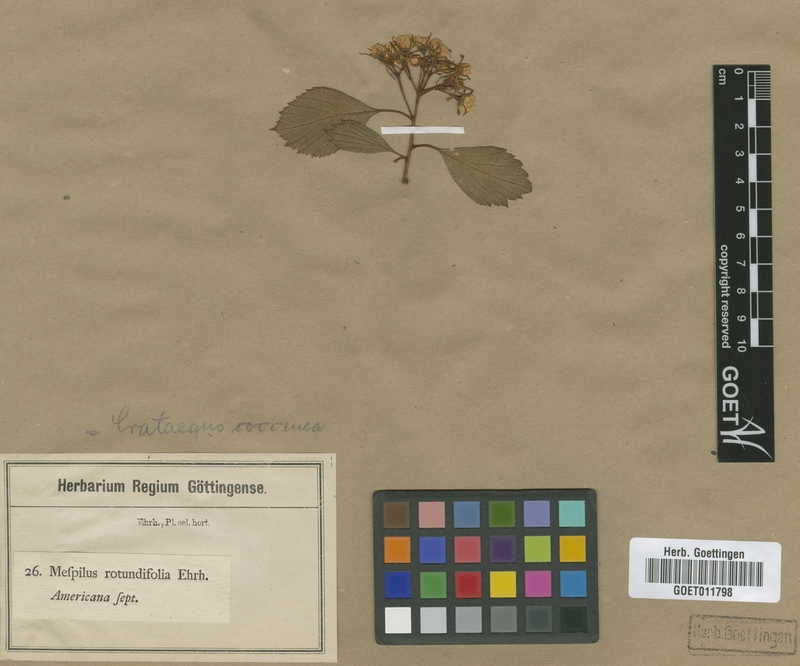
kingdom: Plantae
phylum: Tracheophyta
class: Magnoliopsida
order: Rosales
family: Rosaceae
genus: Crataegus
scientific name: Crataegus coccinea
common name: Scarlet hawthorn
